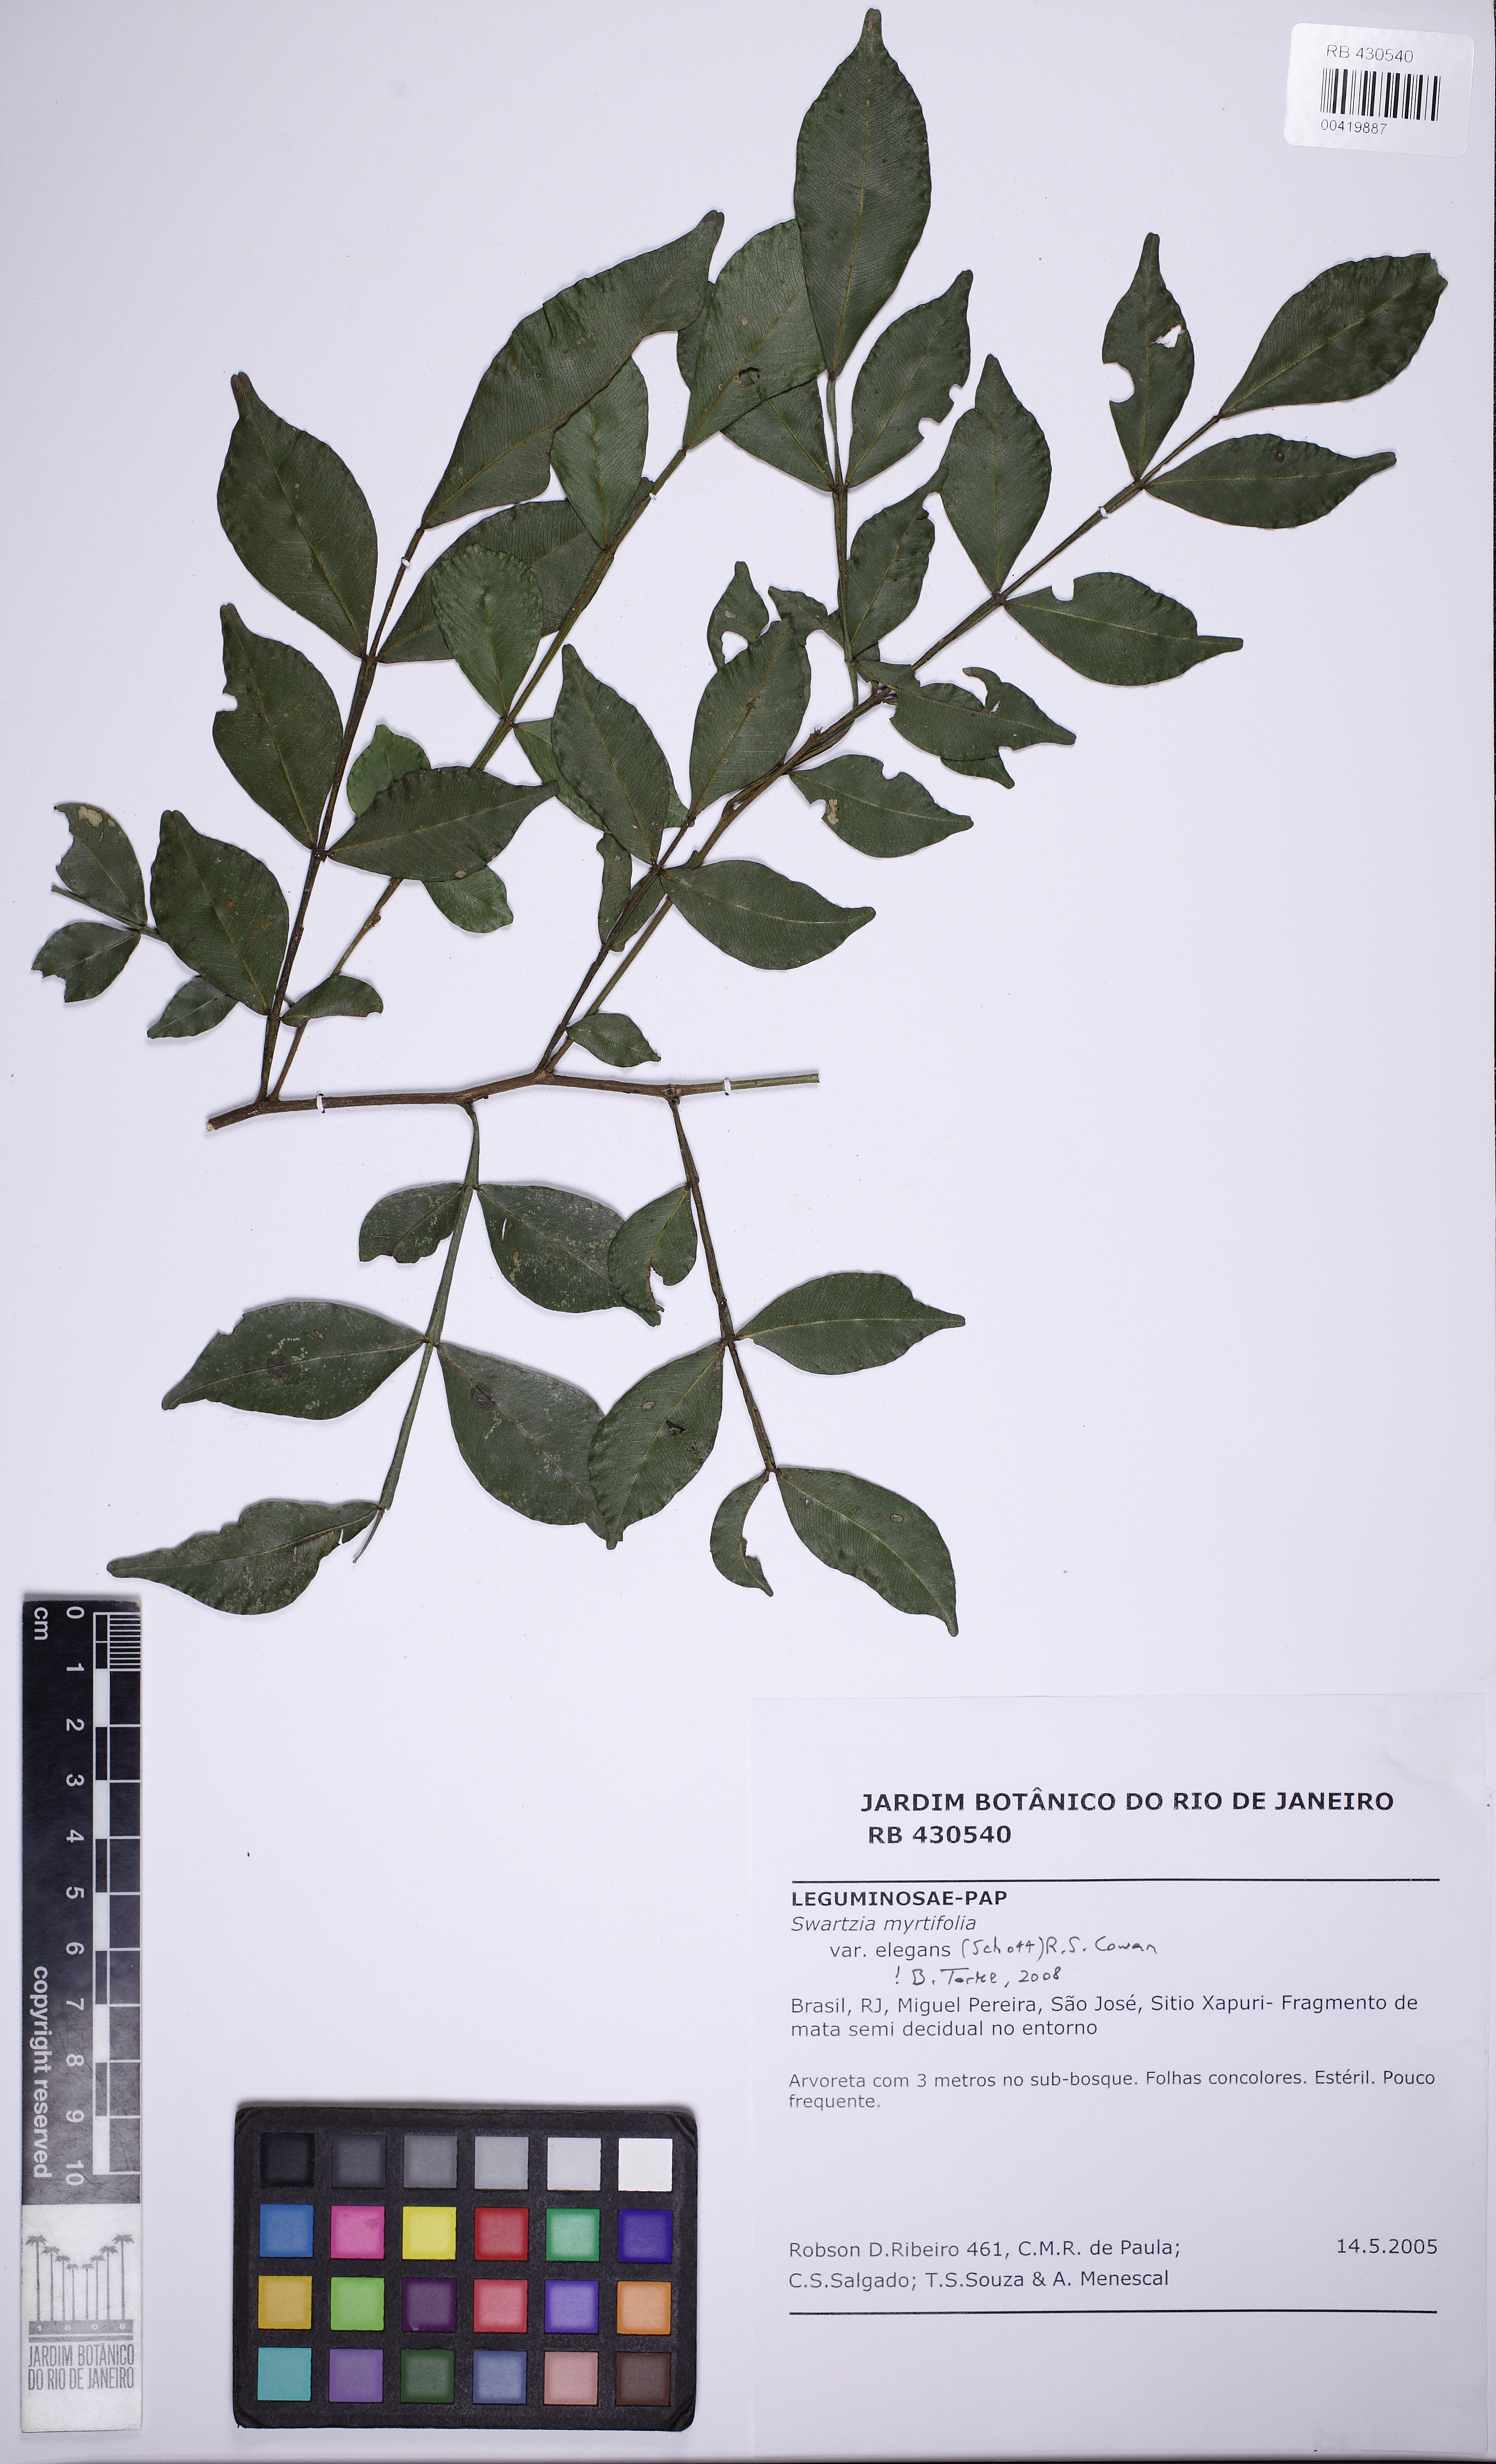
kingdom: Plantae
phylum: Tracheophyta
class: Magnoliopsida
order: Fabales
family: Fabaceae
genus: Swartzia
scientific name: Swartzia myrtifolia
